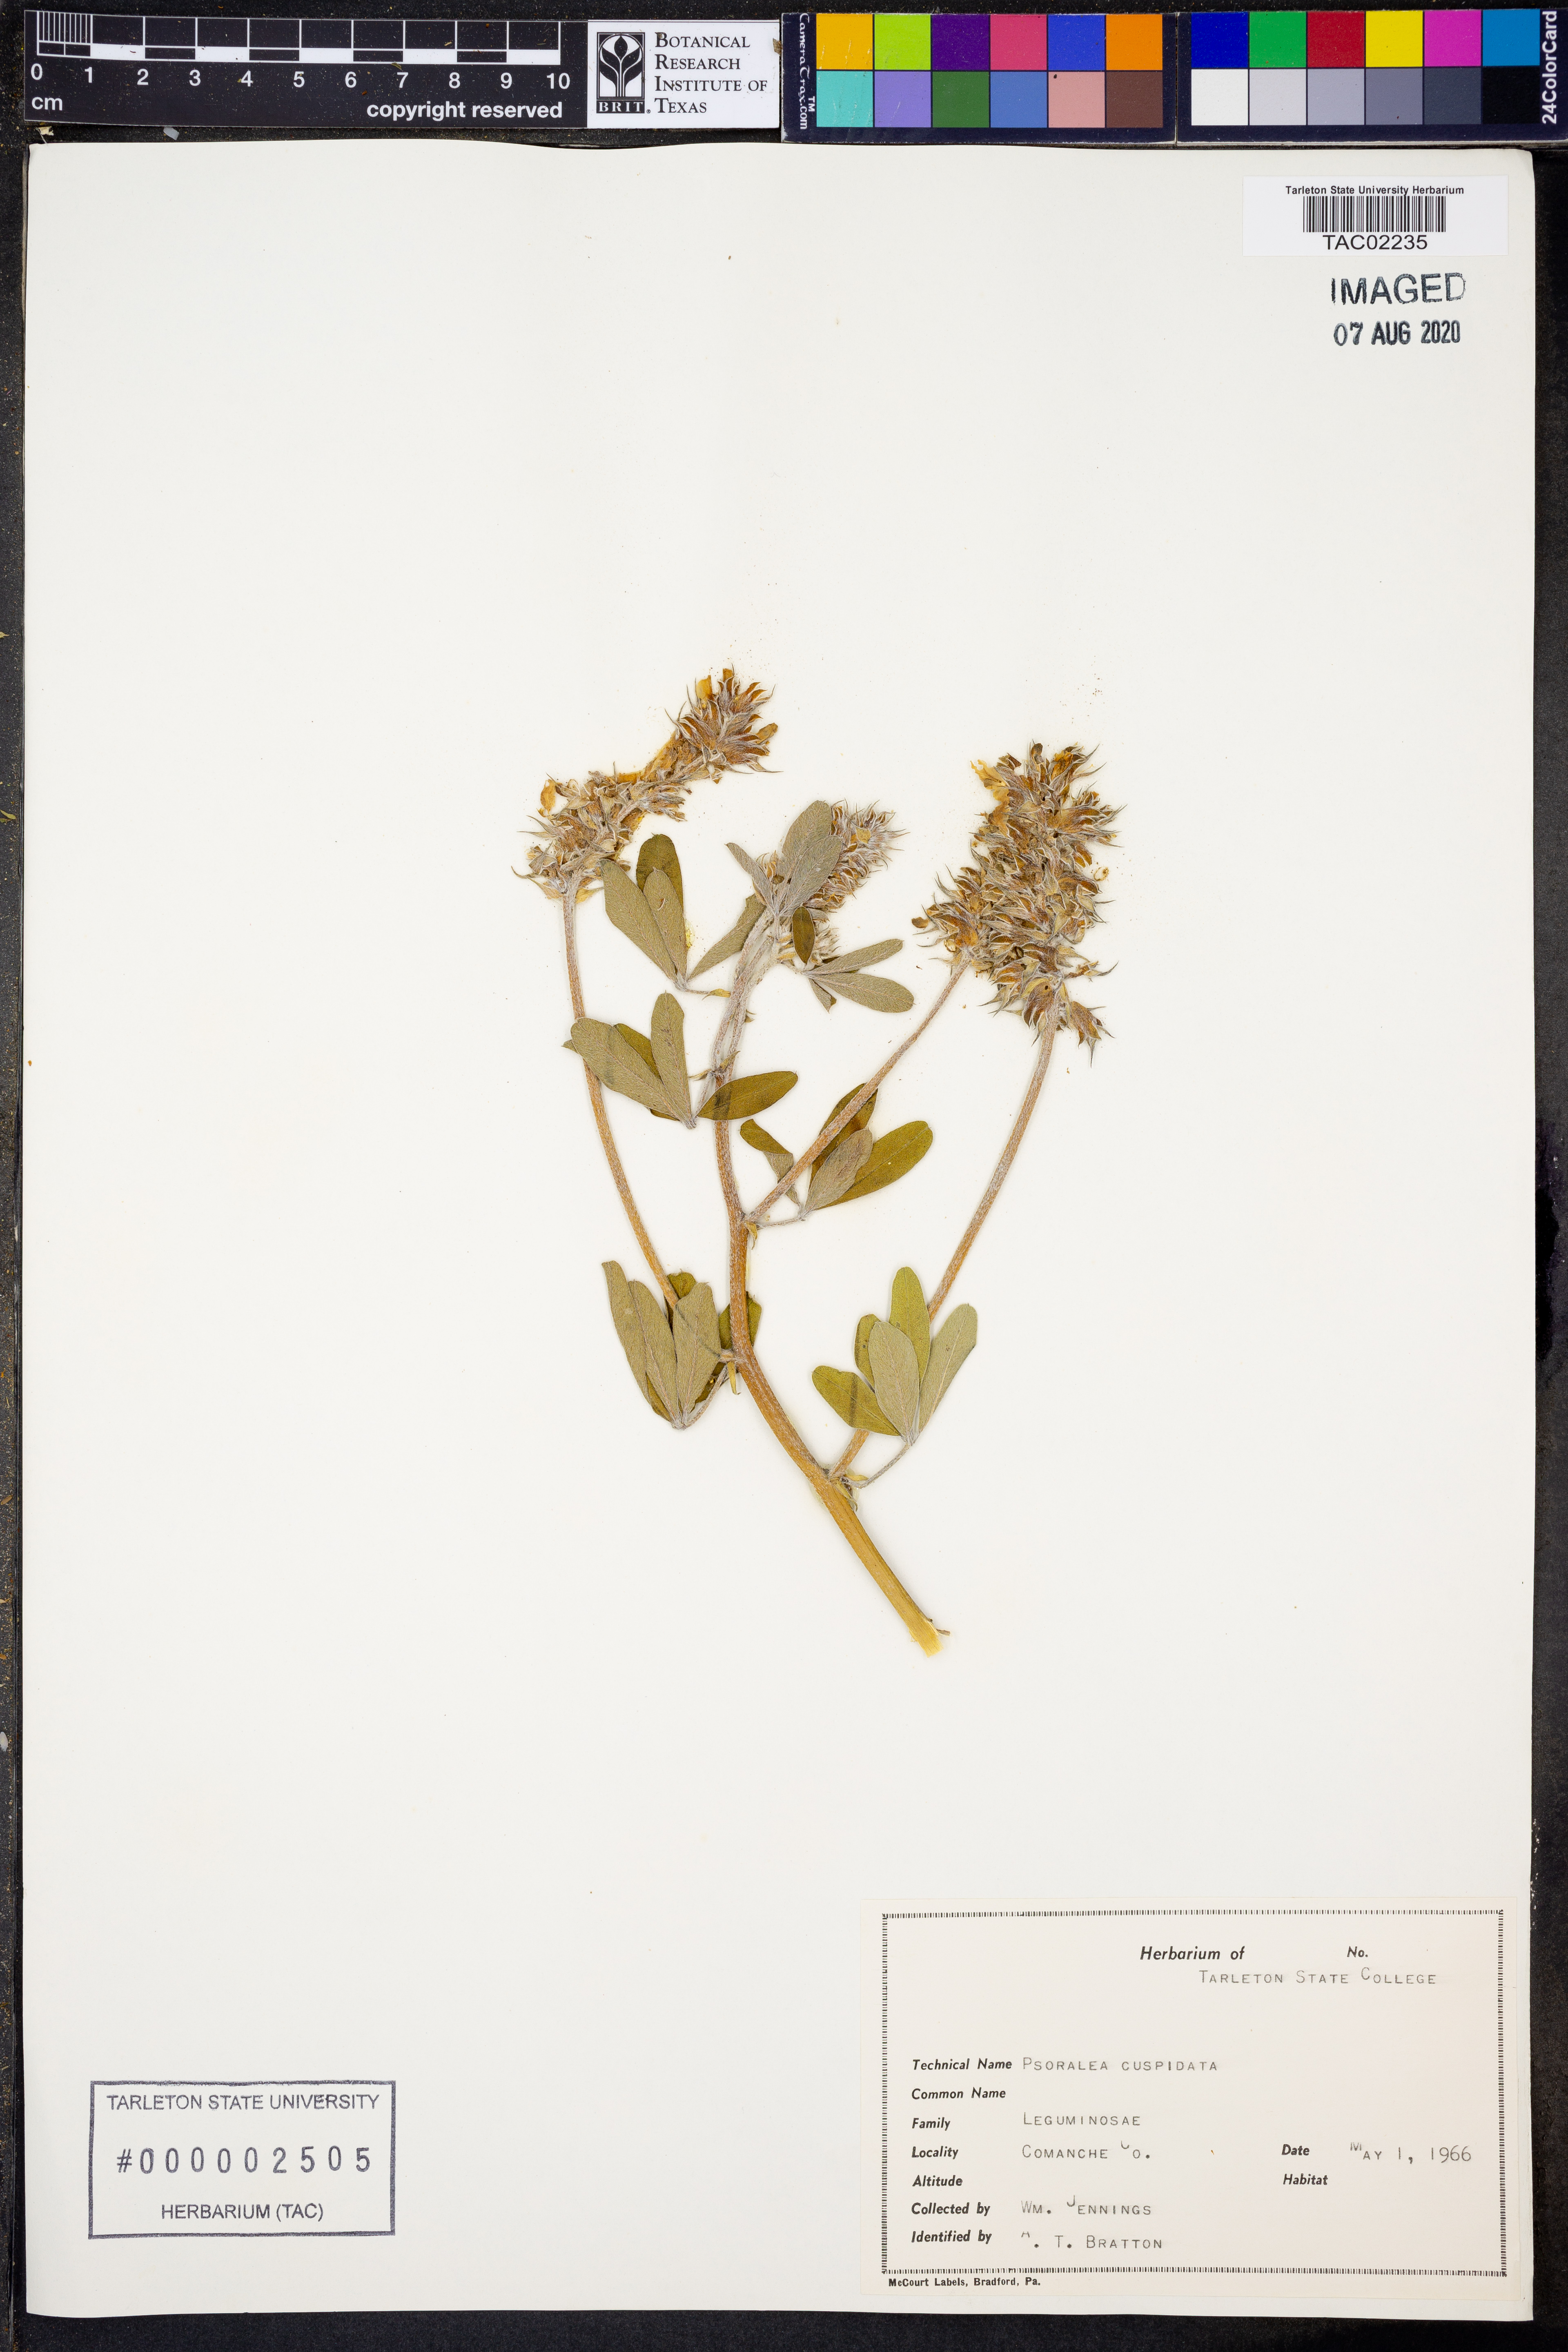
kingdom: Plantae
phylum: Tracheophyta
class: Magnoliopsida
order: Fabales
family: Fabaceae
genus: Pediomelum
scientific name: Pediomelum cuspidatum
